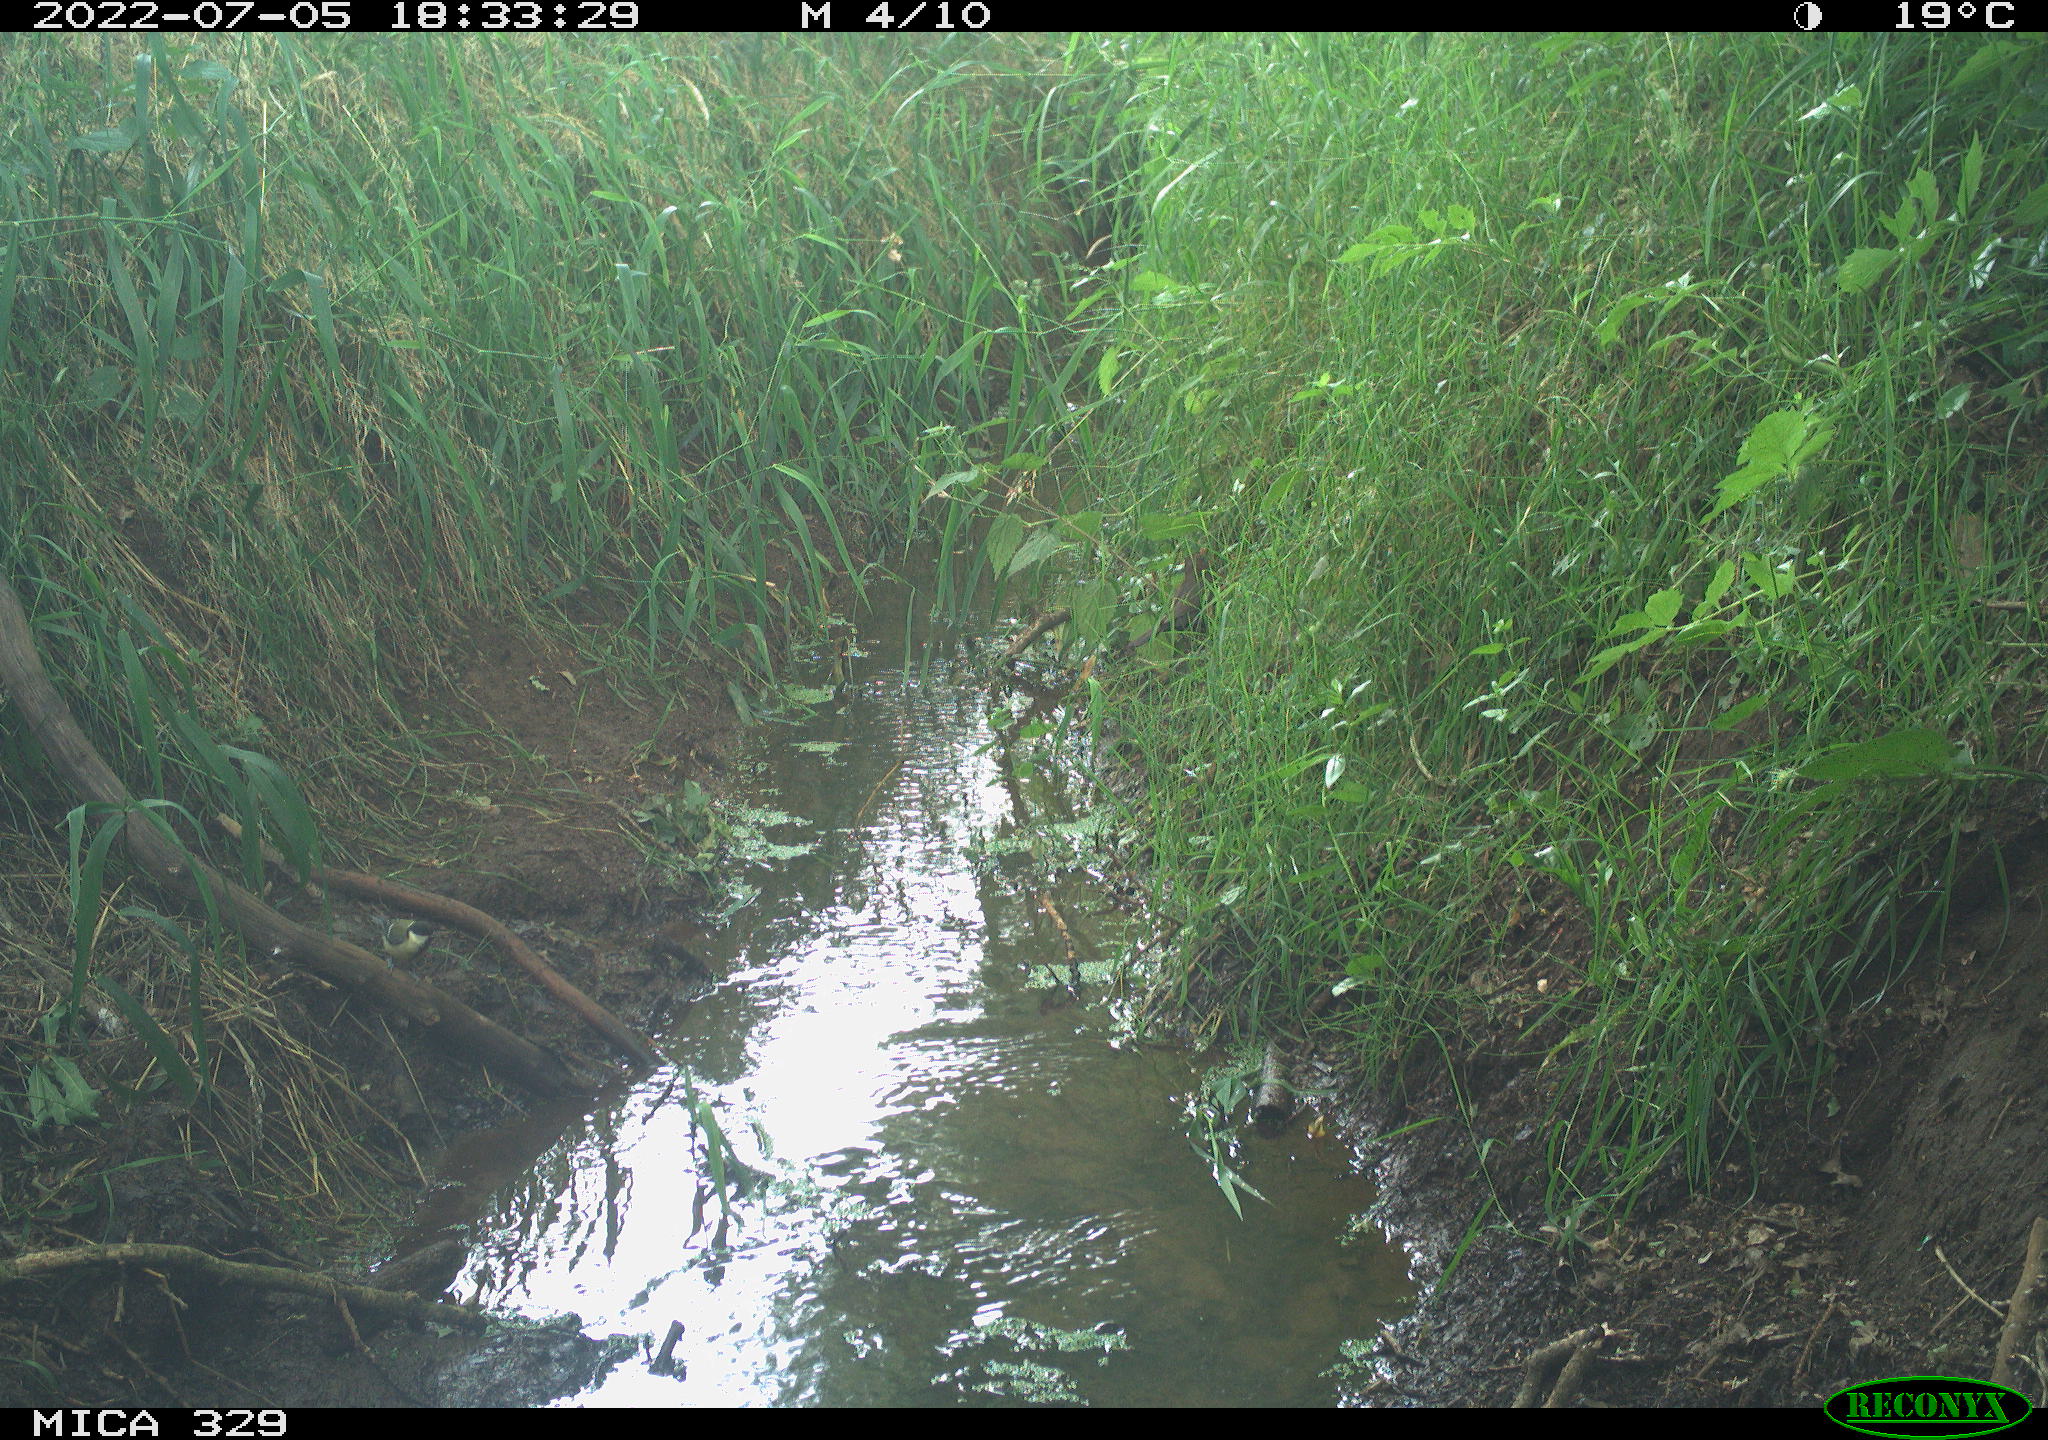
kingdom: Animalia
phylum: Chordata
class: Aves
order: Passeriformes
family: Paridae
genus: Parus
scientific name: Parus major
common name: Great tit
